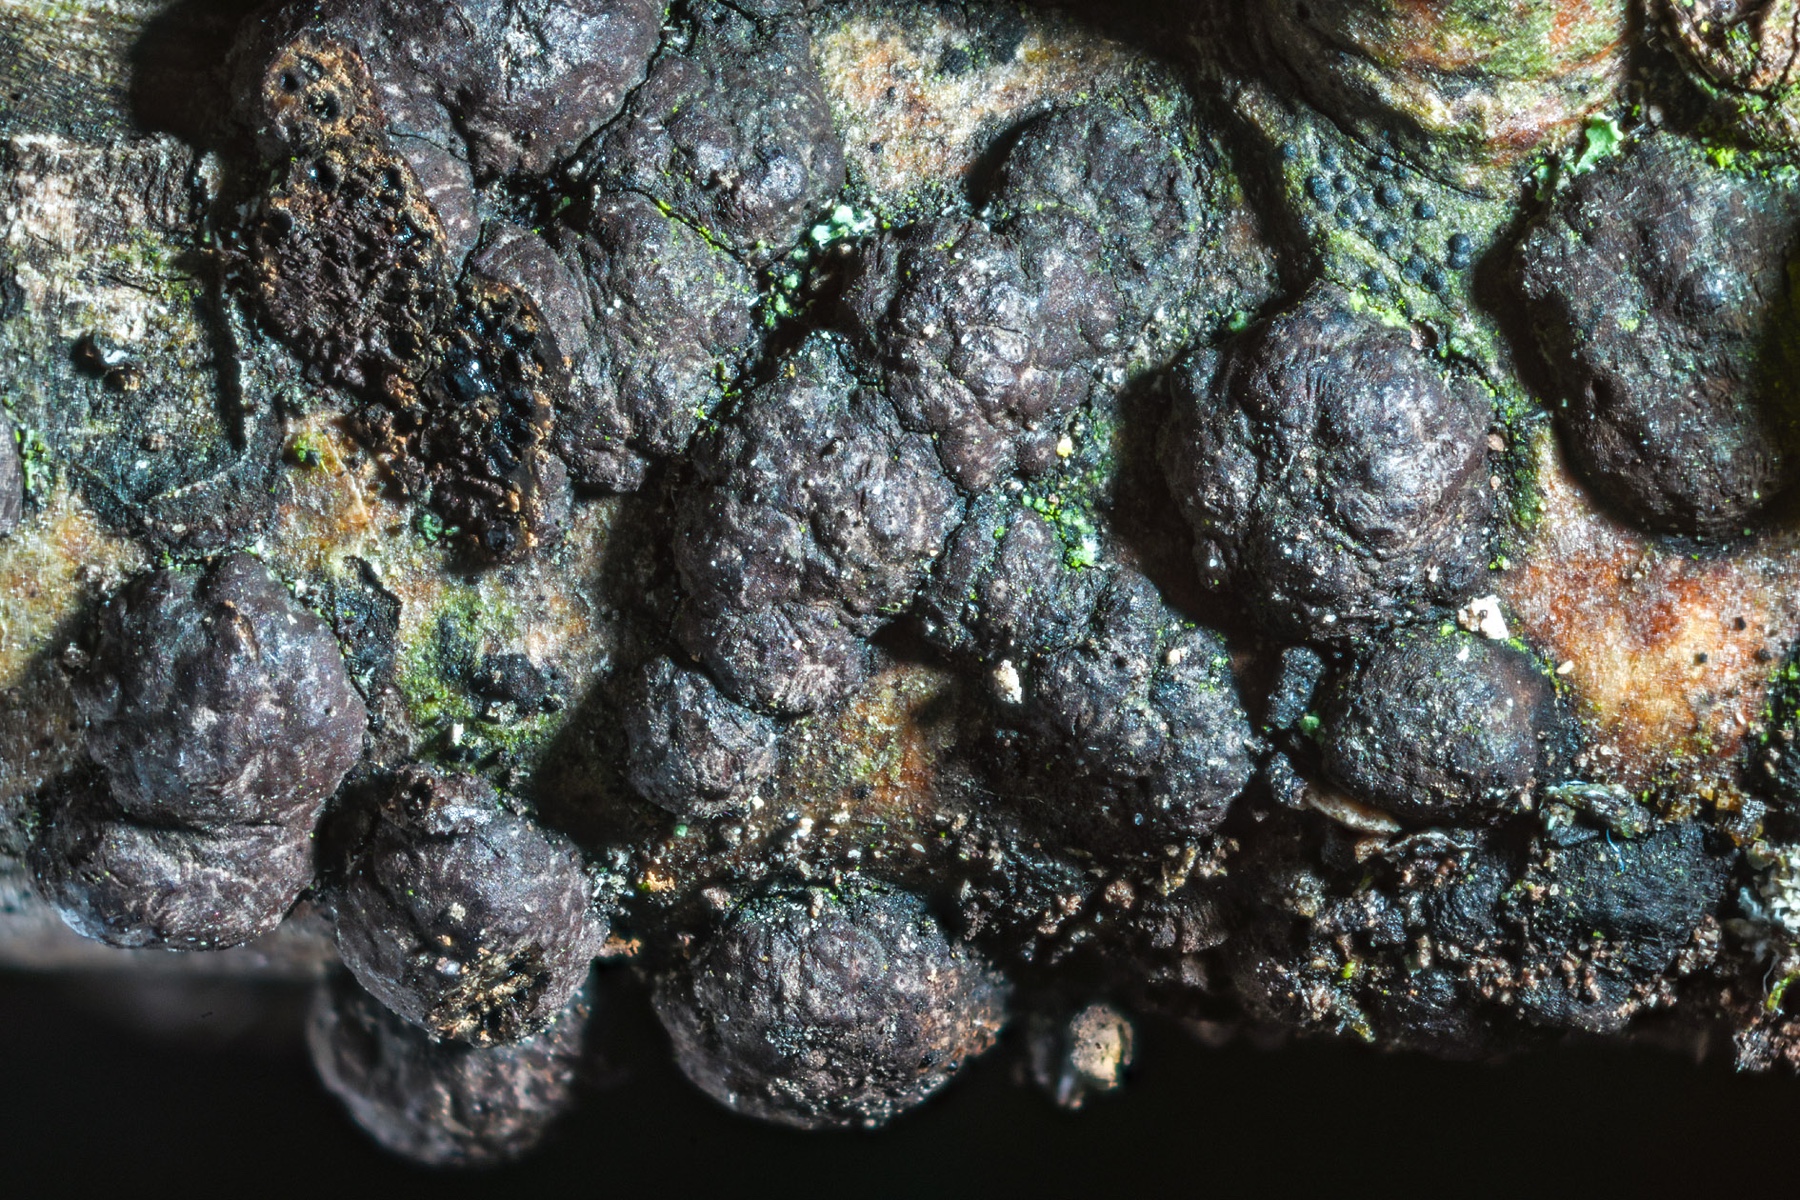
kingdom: Fungi
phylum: Ascomycota
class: Sordariomycetes
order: Xylariales
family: Hypoxylaceae
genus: Hypoxylon
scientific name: Hypoxylon fuscum
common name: kegleformet kulbær
